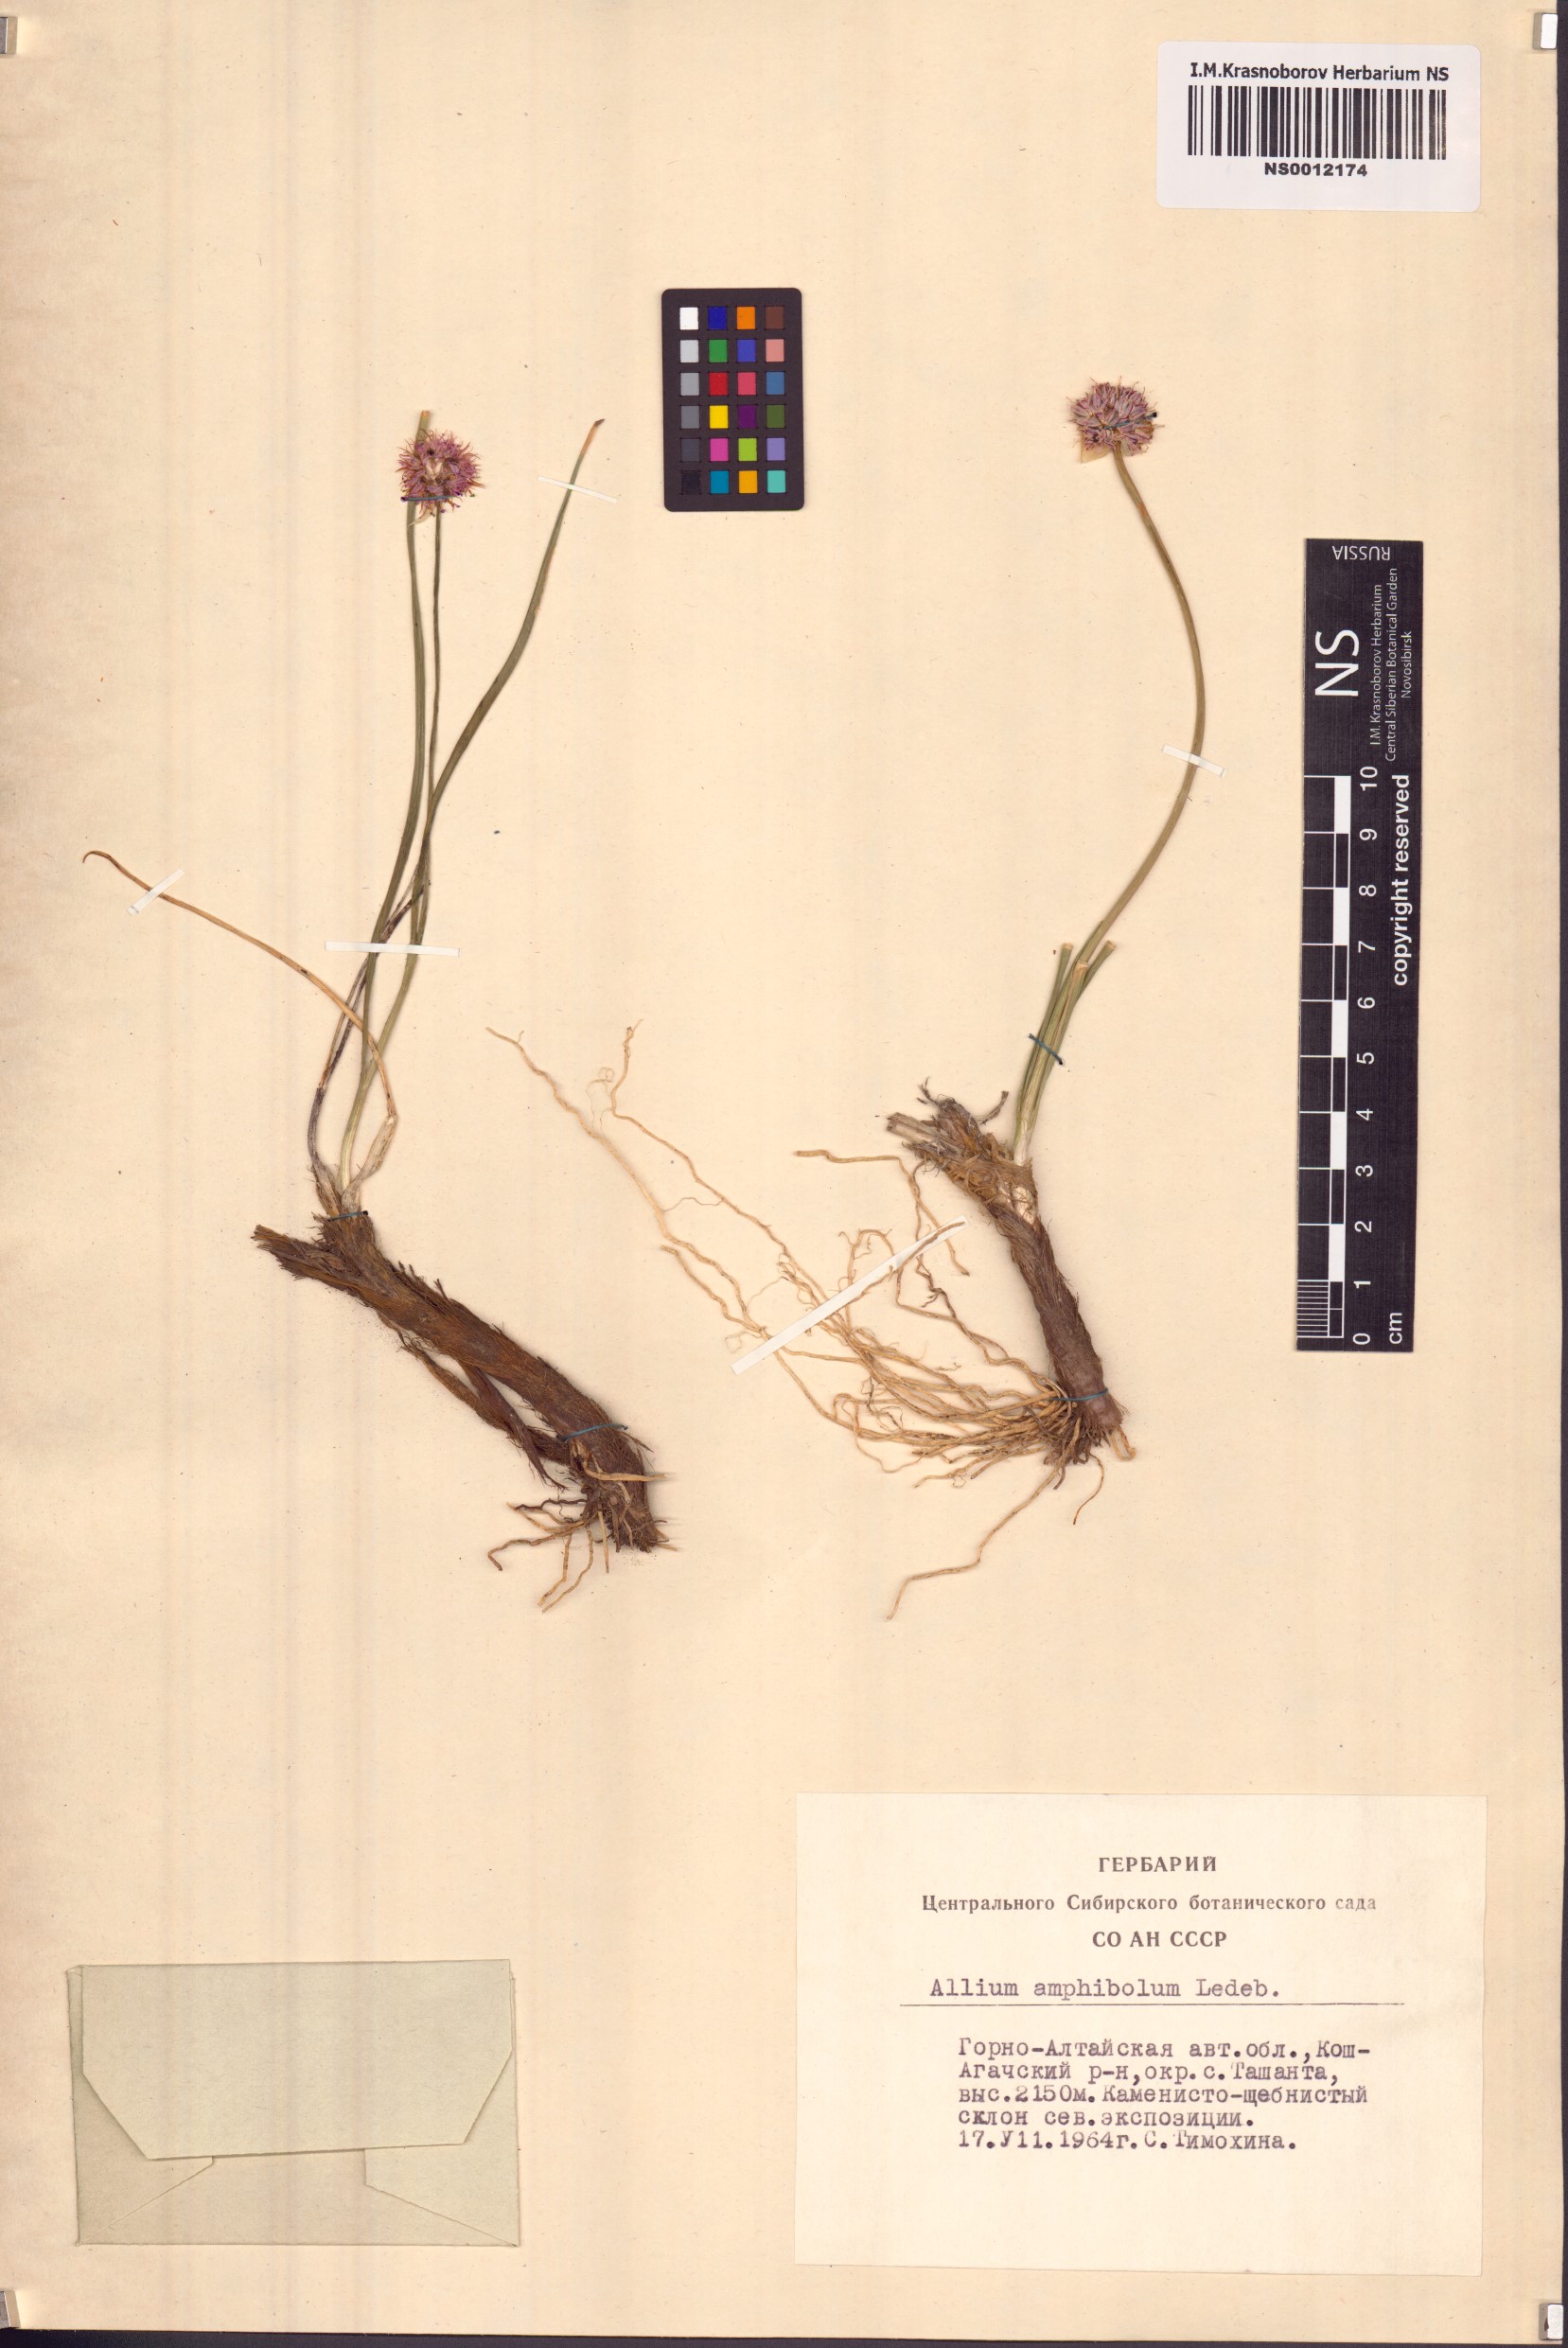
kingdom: Plantae
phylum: Tracheophyta
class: Liliopsida
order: Asparagales
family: Amaryllidaceae
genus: Allium
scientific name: Allium amphibolum
